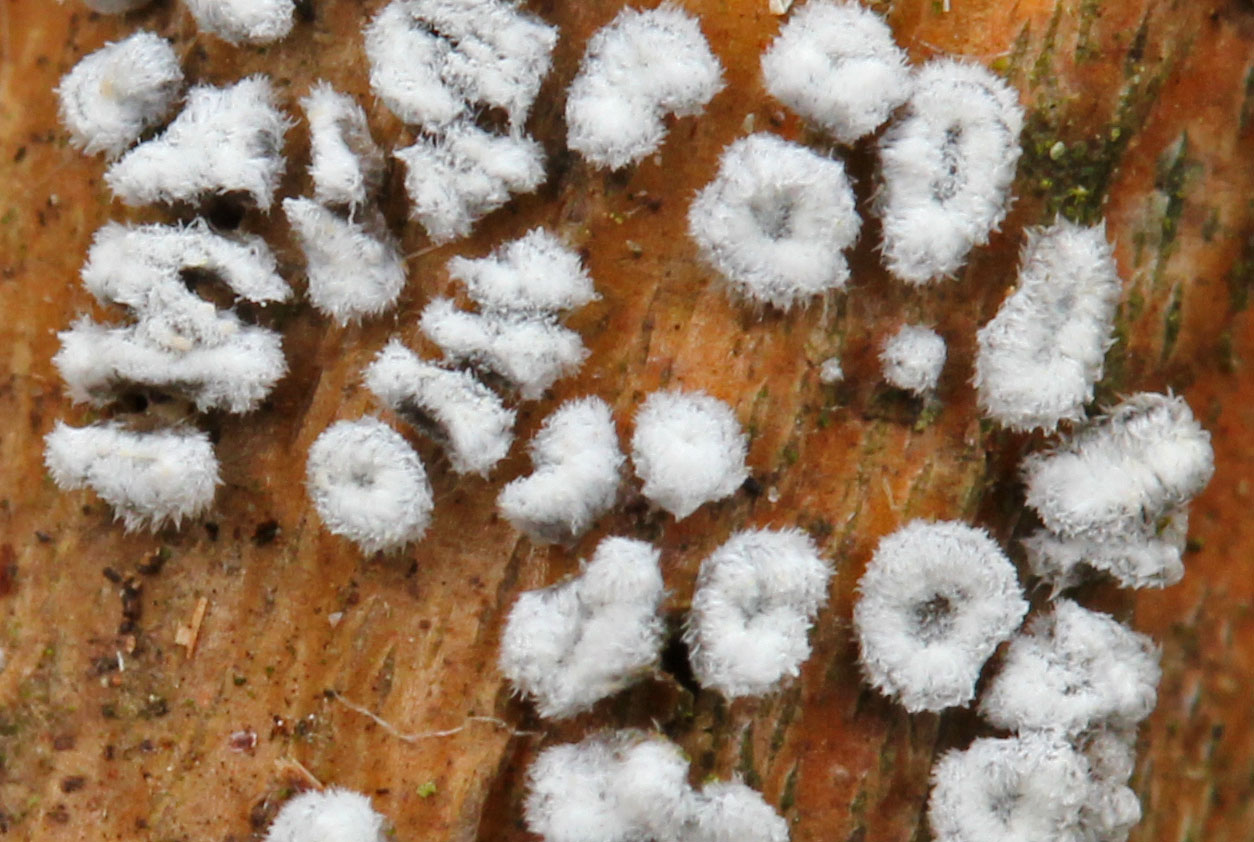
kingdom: Fungi
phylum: Basidiomycota
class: Agaricomycetes
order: Agaricales
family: Niaceae
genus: Lachnella
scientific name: Lachnella alboviolascens
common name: grå frynserede
